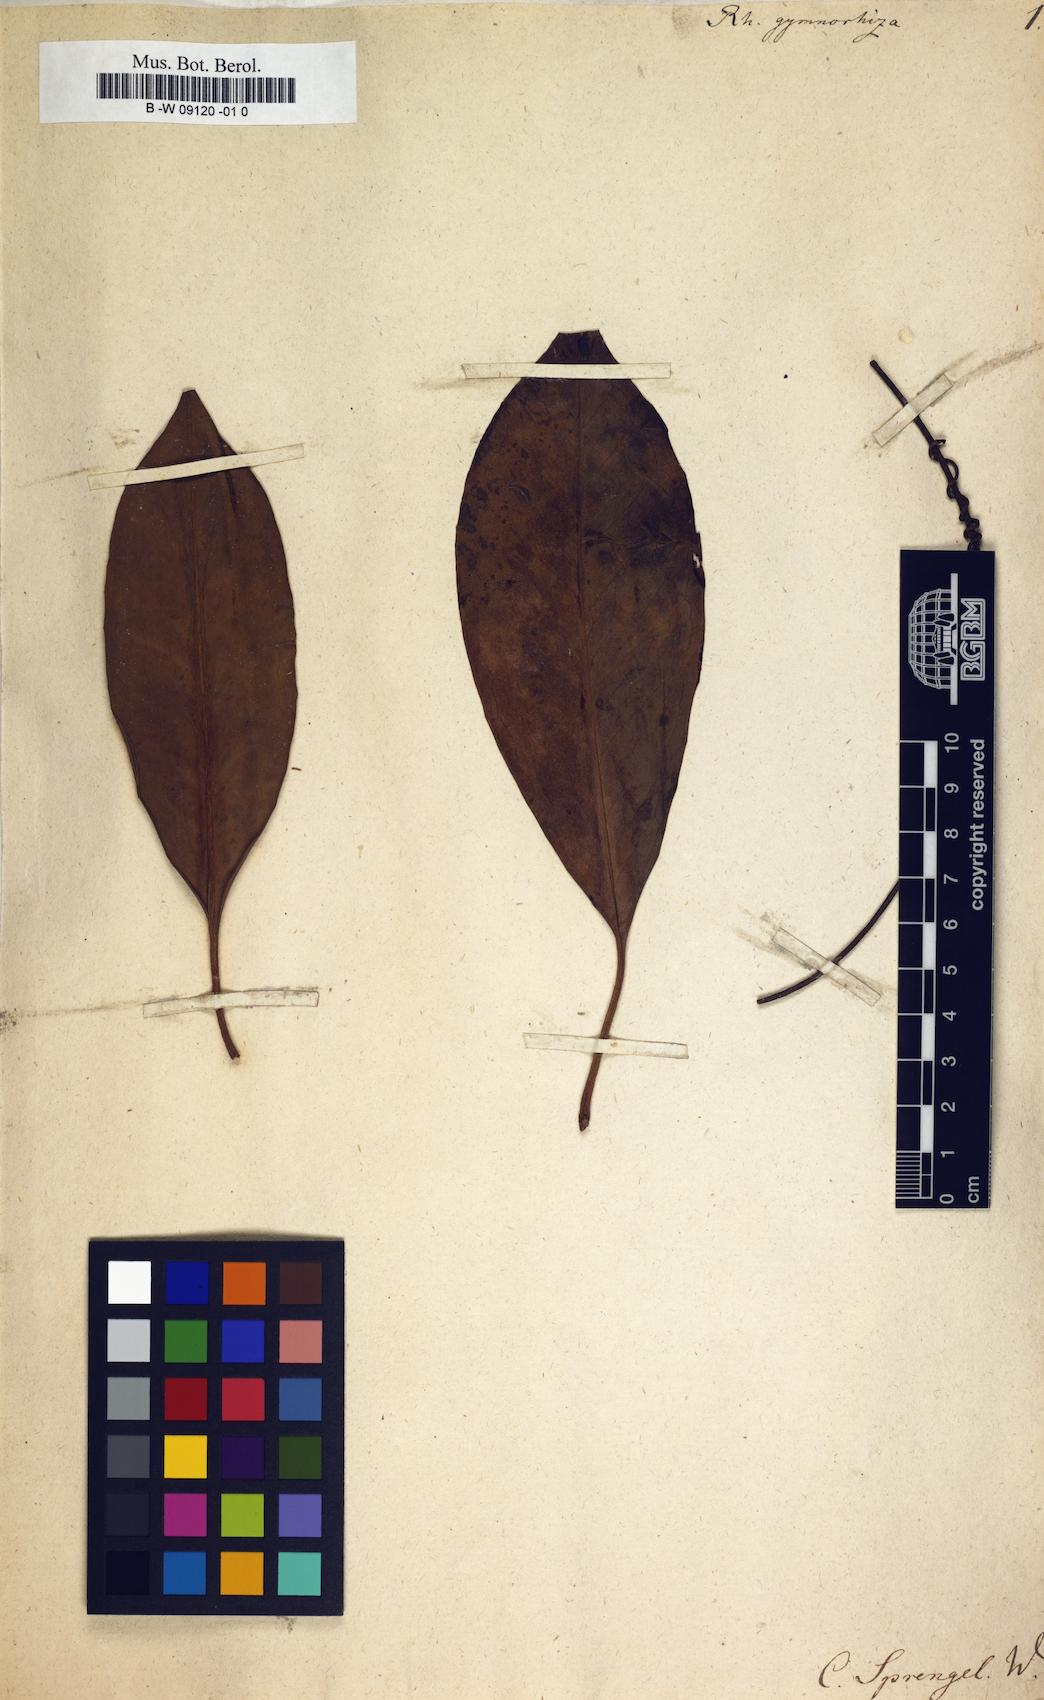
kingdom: Plantae
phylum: Tracheophyta
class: Magnoliopsida
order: Malpighiales
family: Rhizophoraceae
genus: Bruguiera
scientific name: Bruguiera gymnorhiza
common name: Oriental mangrove
